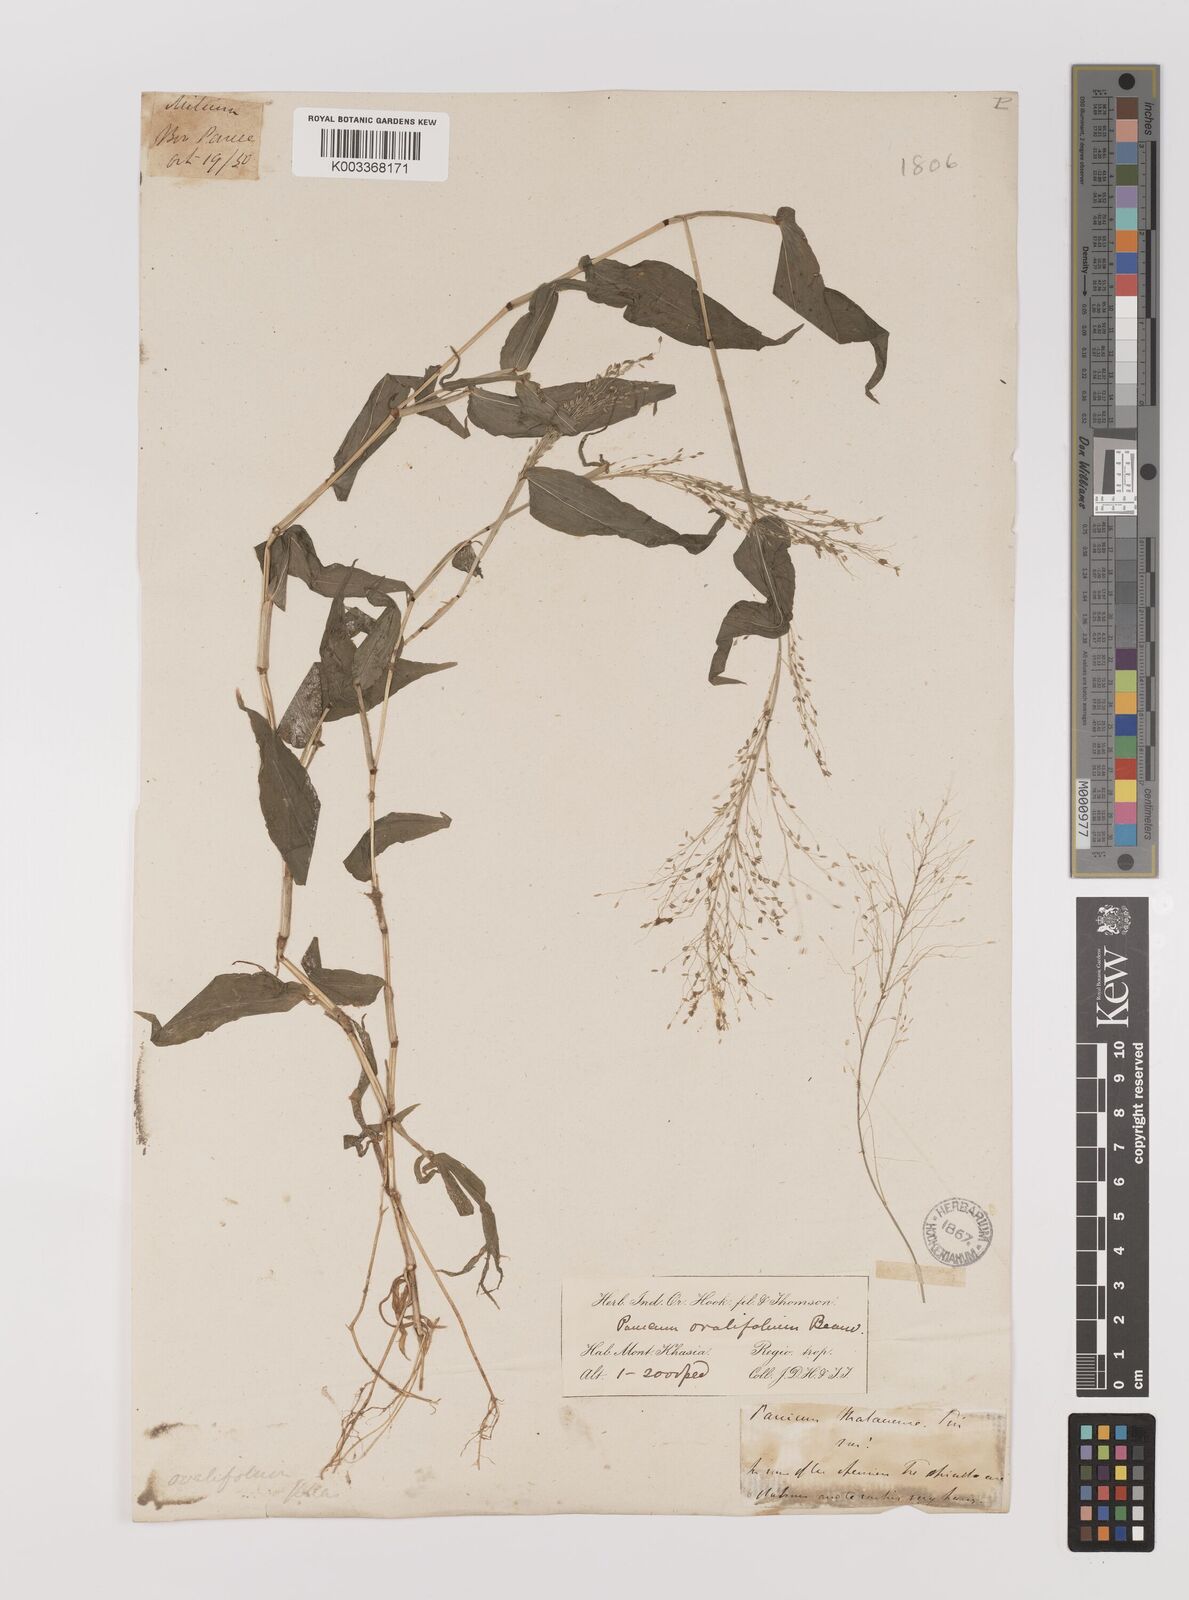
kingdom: Plantae
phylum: Tracheophyta
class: Liliopsida
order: Poales
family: Poaceae
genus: Panicum
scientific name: Panicum brevifolium
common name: Shortleaf panic grass
